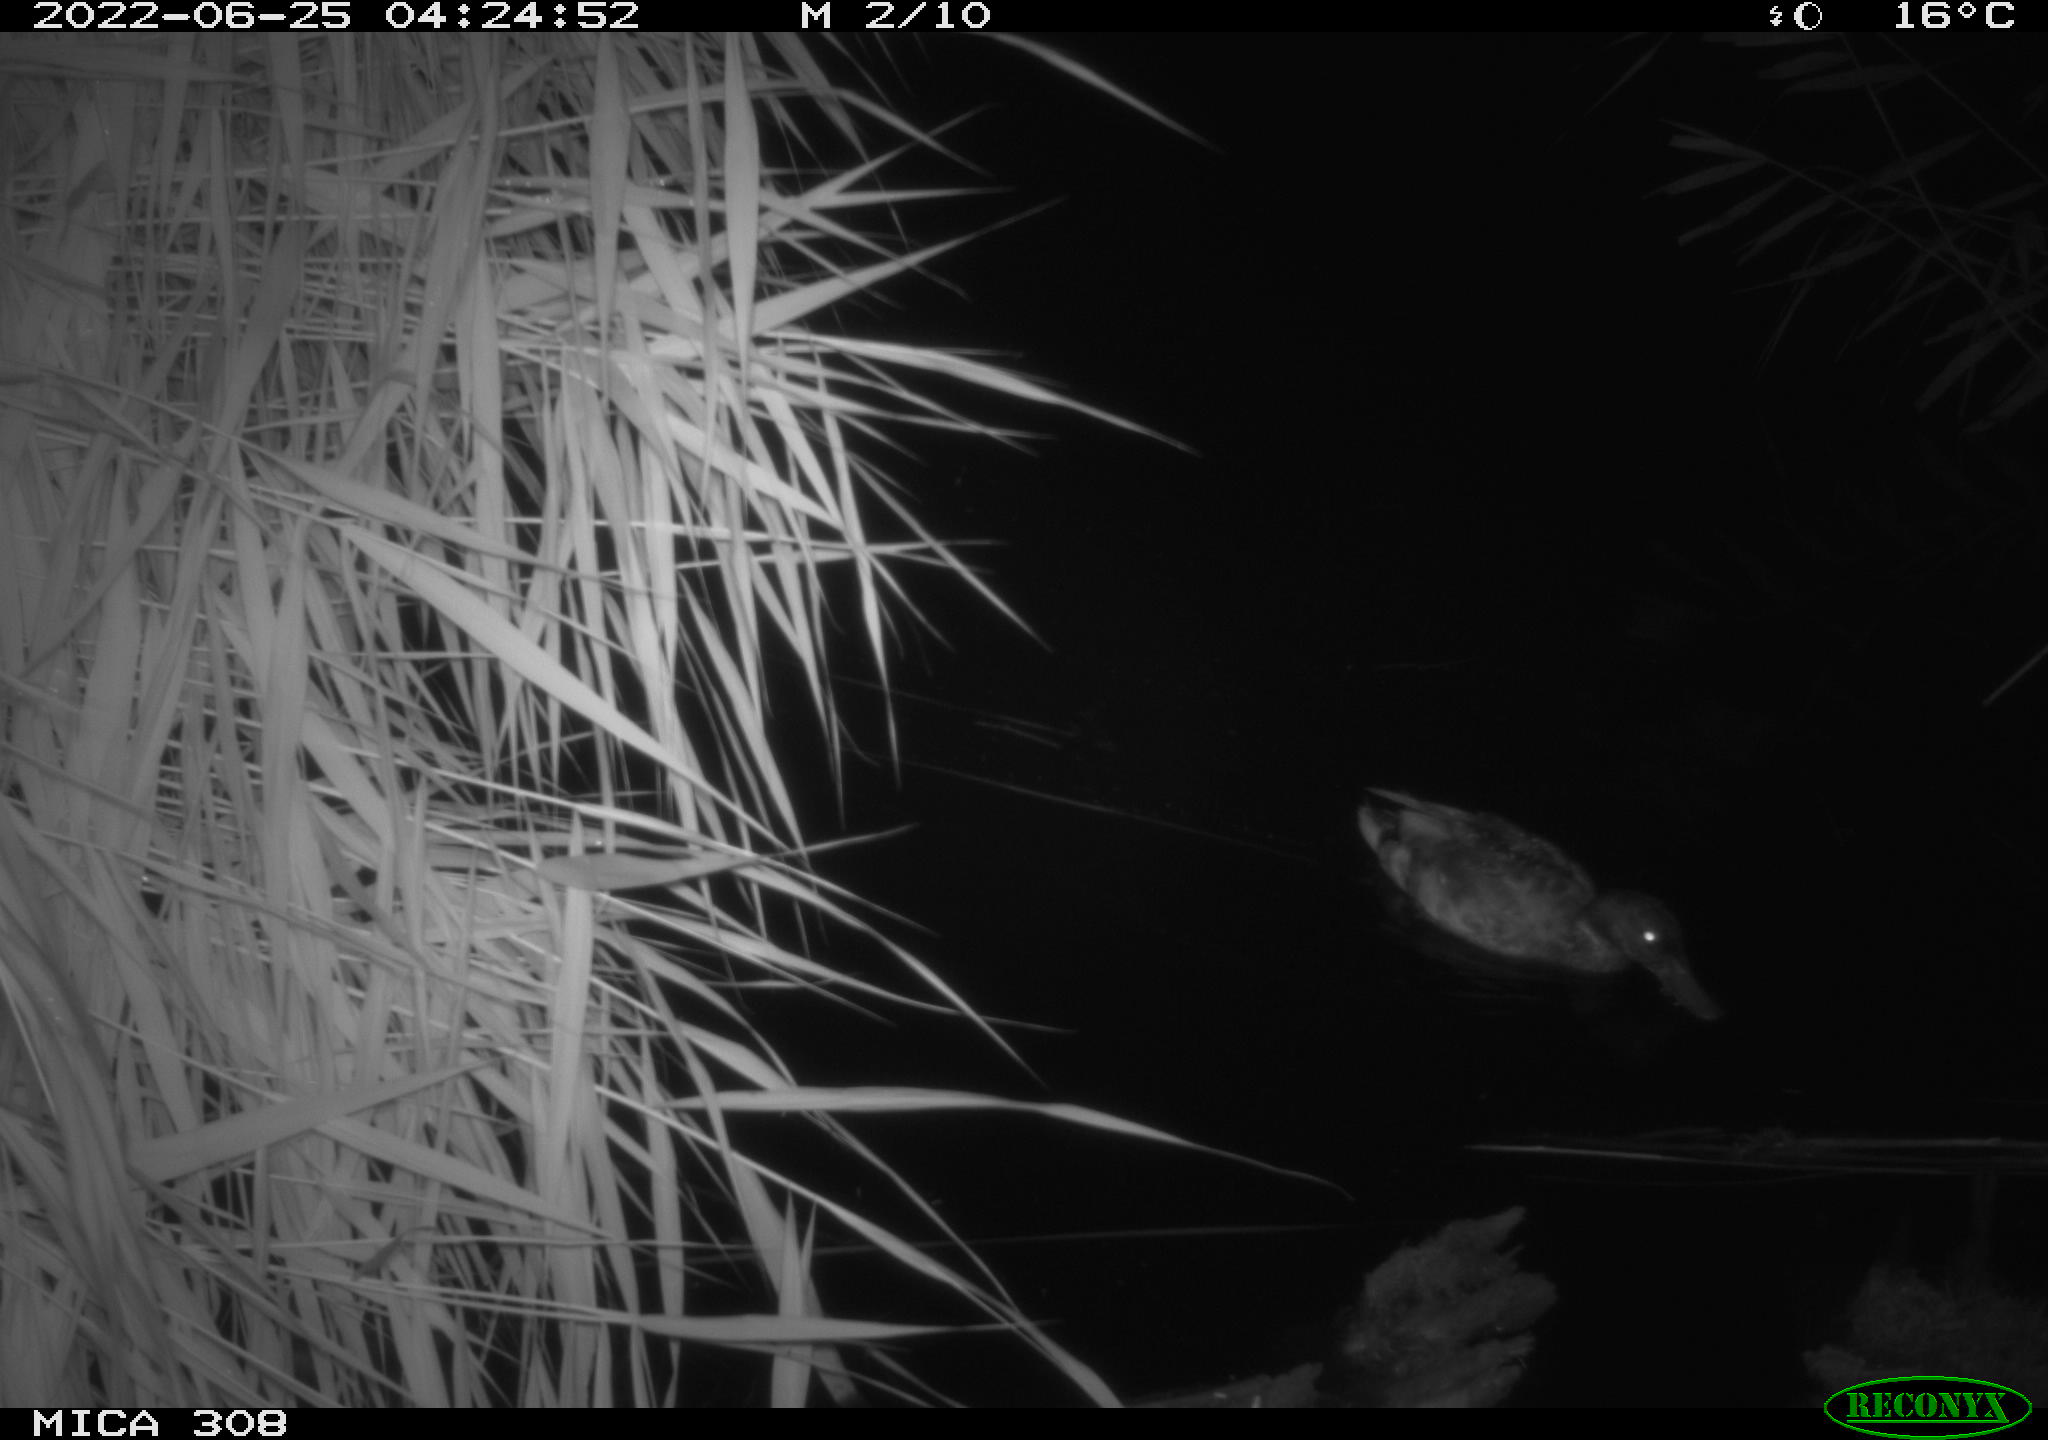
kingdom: Animalia
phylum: Chordata
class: Aves
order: Anseriformes
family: Anatidae
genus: Anas
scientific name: Anas platyrhynchos
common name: Mallard
